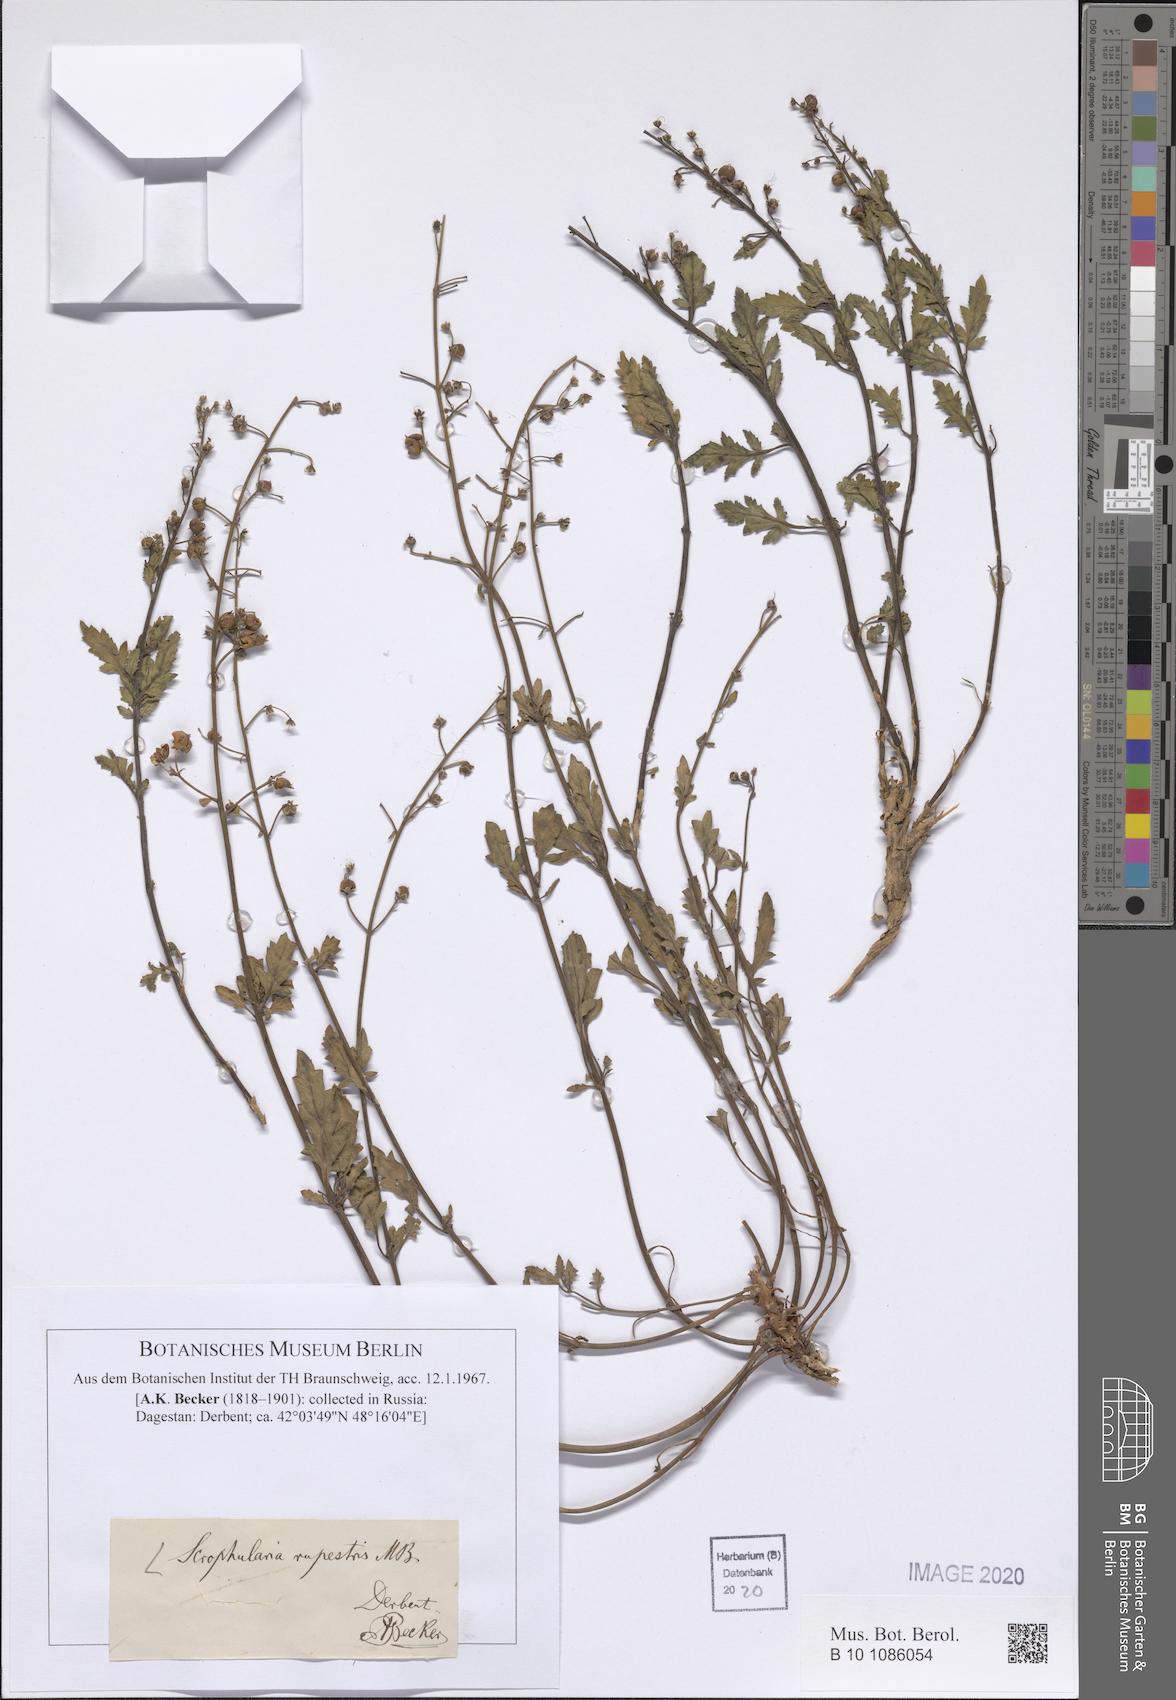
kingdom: Plantae
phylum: Tracheophyta
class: Magnoliopsida
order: Lamiales
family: Scrophulariaceae
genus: Scrophularia
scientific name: Scrophularia rupestris
